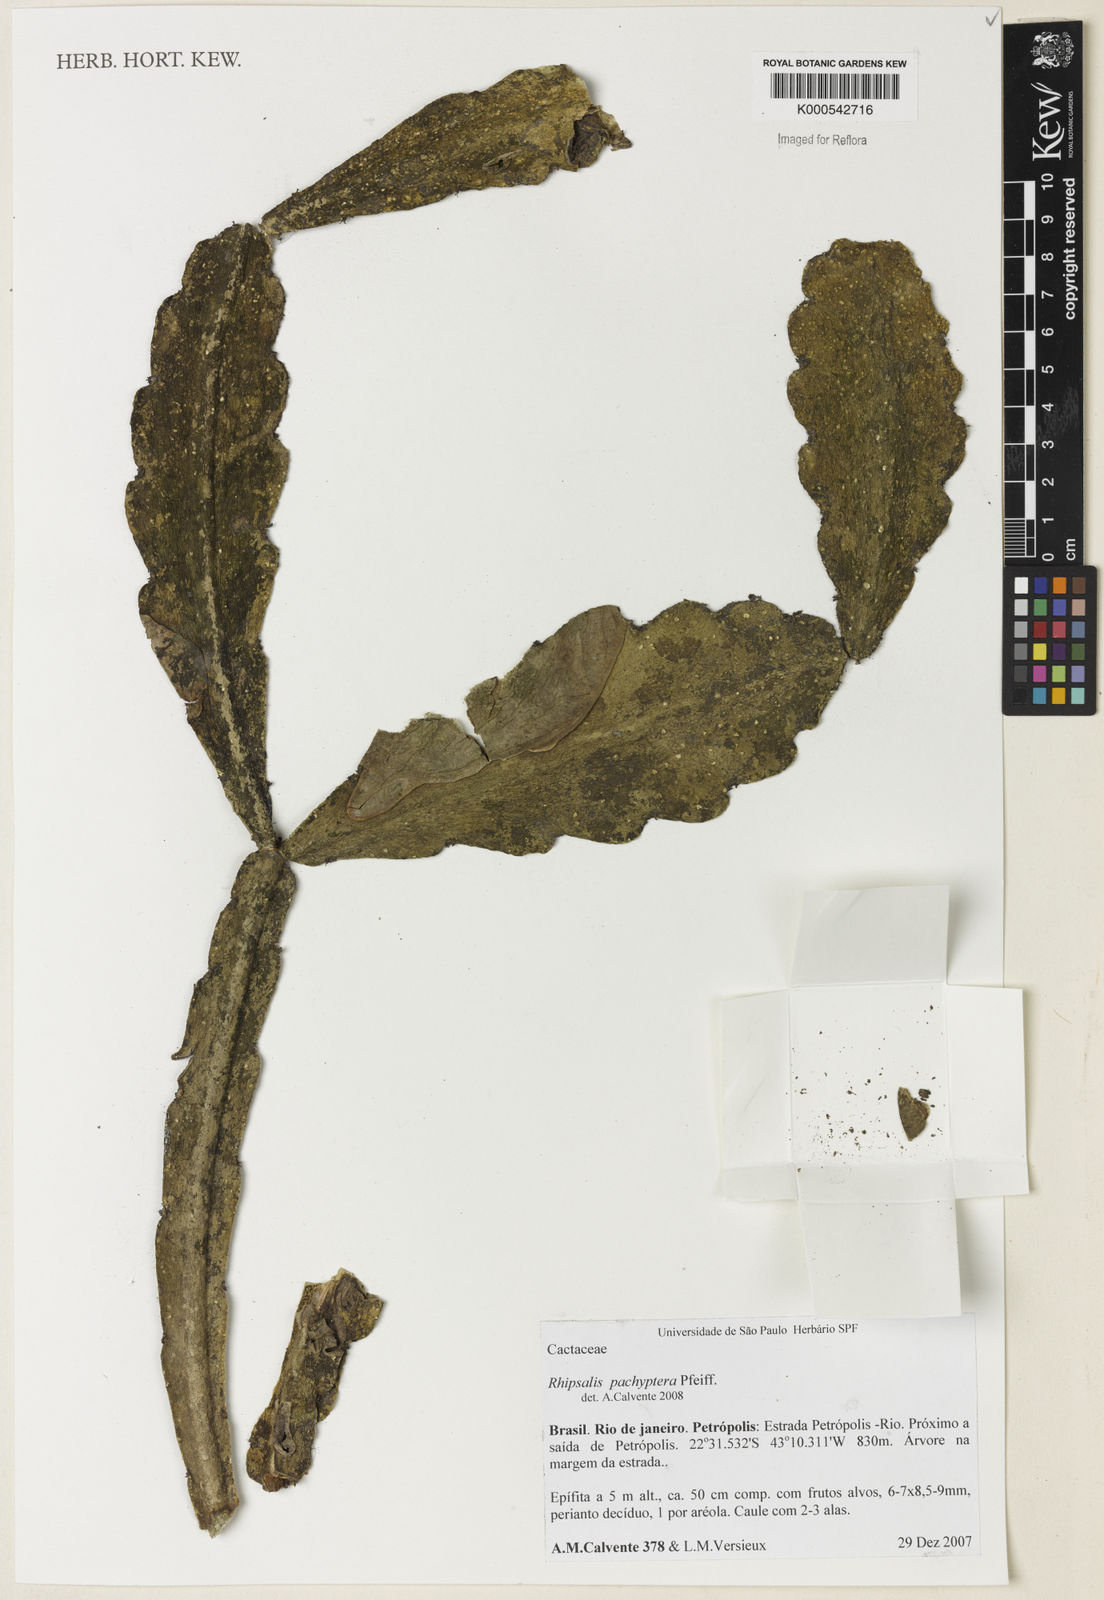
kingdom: Plantae
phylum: Tracheophyta
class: Magnoliopsida
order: Caryophyllales
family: Cactaceae
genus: Rhipsalis
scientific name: Rhipsalis pachyptera
